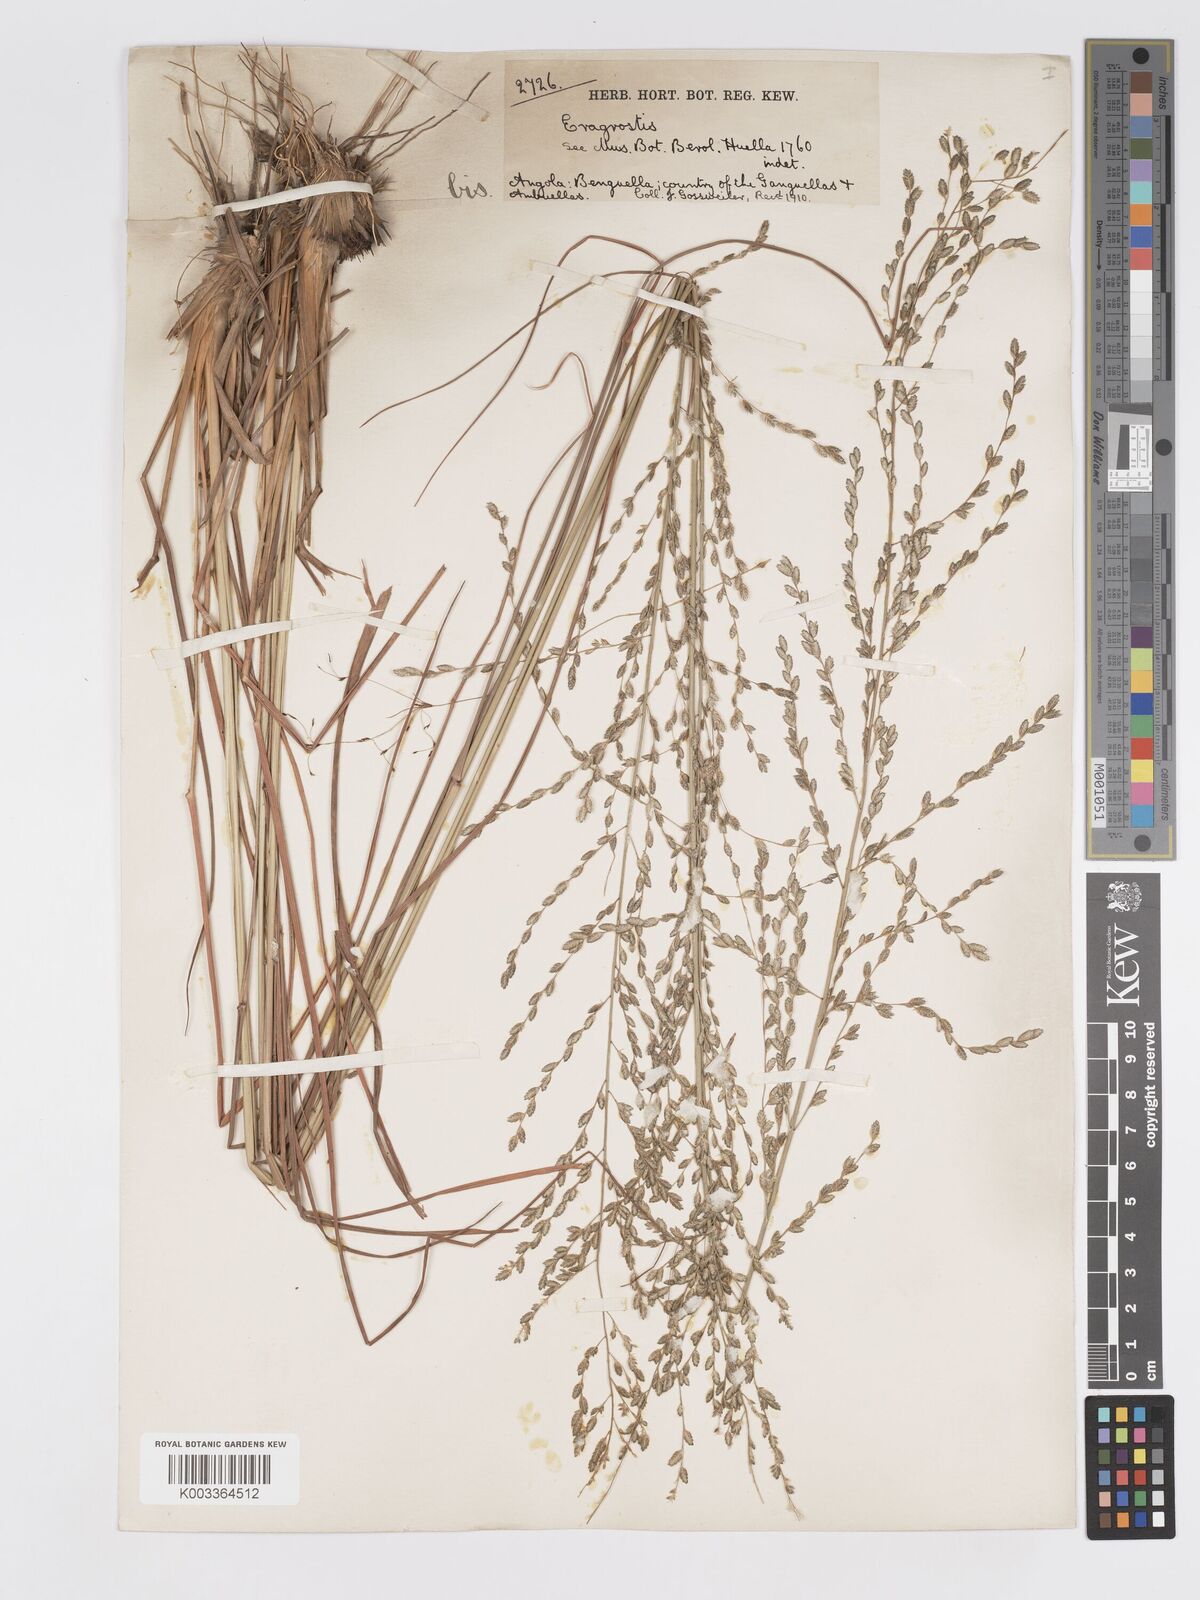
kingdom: Plantae
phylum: Tracheophyta
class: Liliopsida
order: Poales
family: Poaceae
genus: Eragrostis
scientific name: Eragrostis sclerantha
